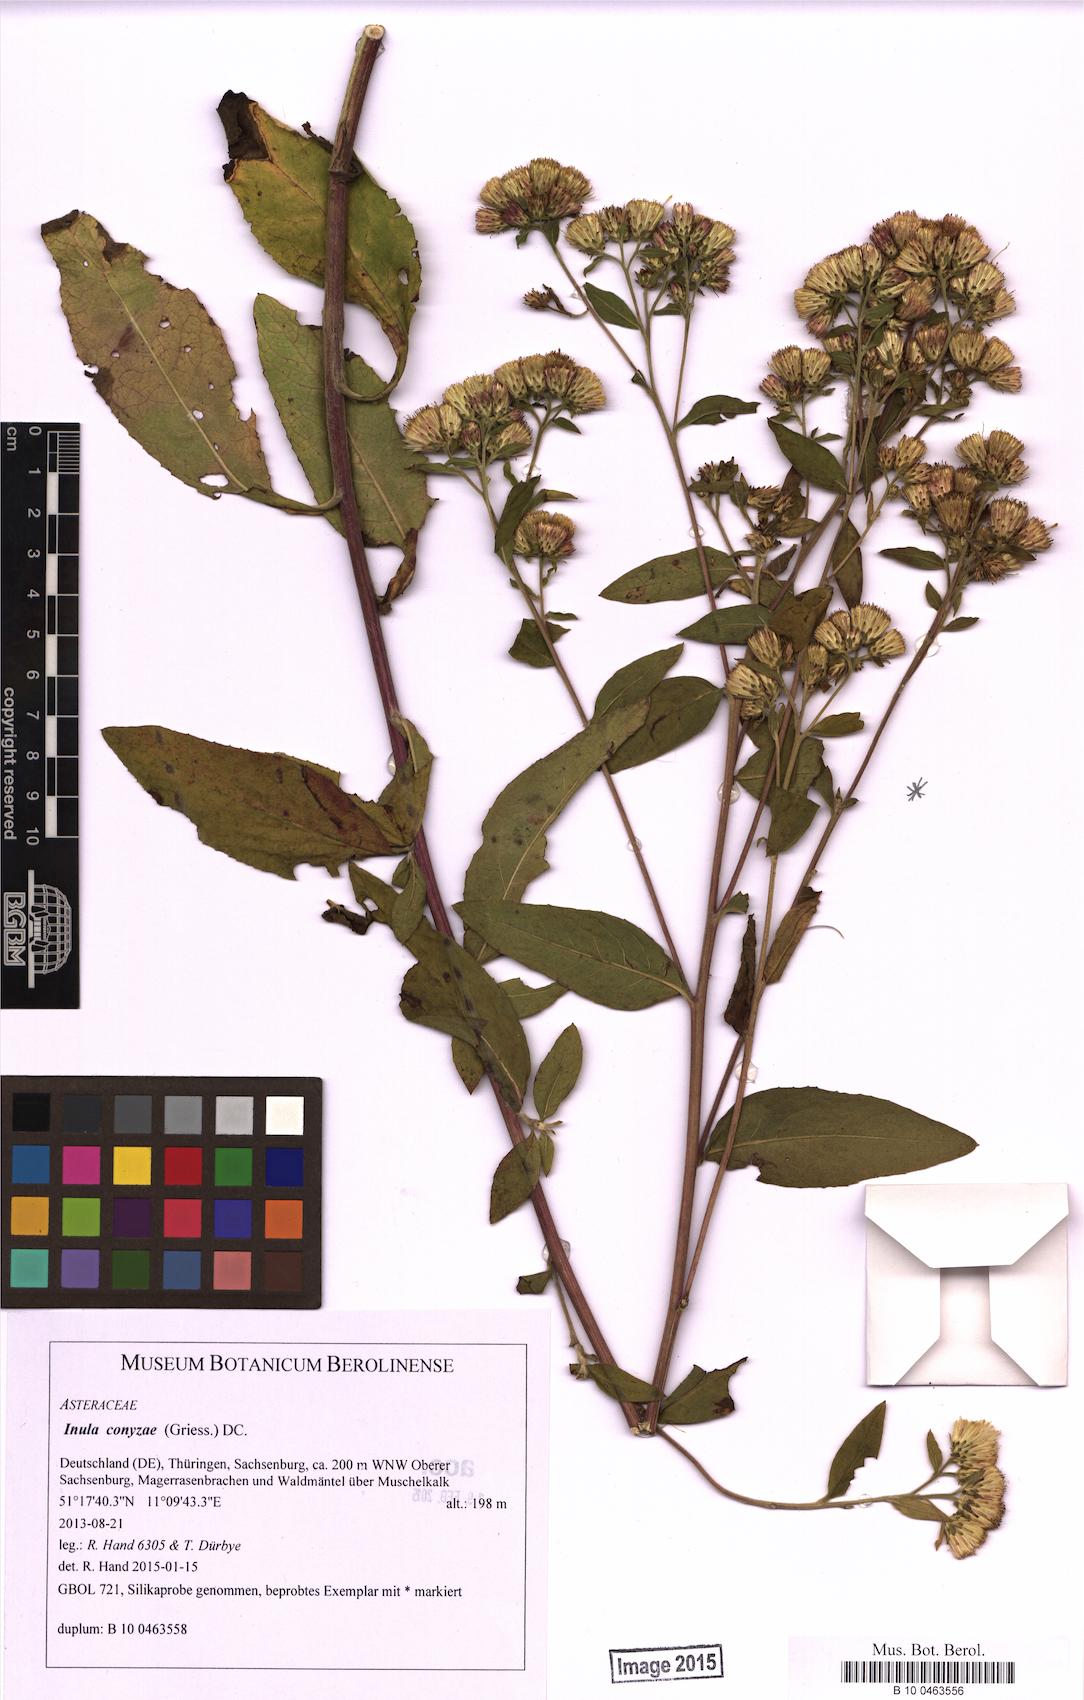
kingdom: Plantae
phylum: Tracheophyta
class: Magnoliopsida
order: Asterales
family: Asteraceae
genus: Pentanema
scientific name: Pentanema squarrosum
